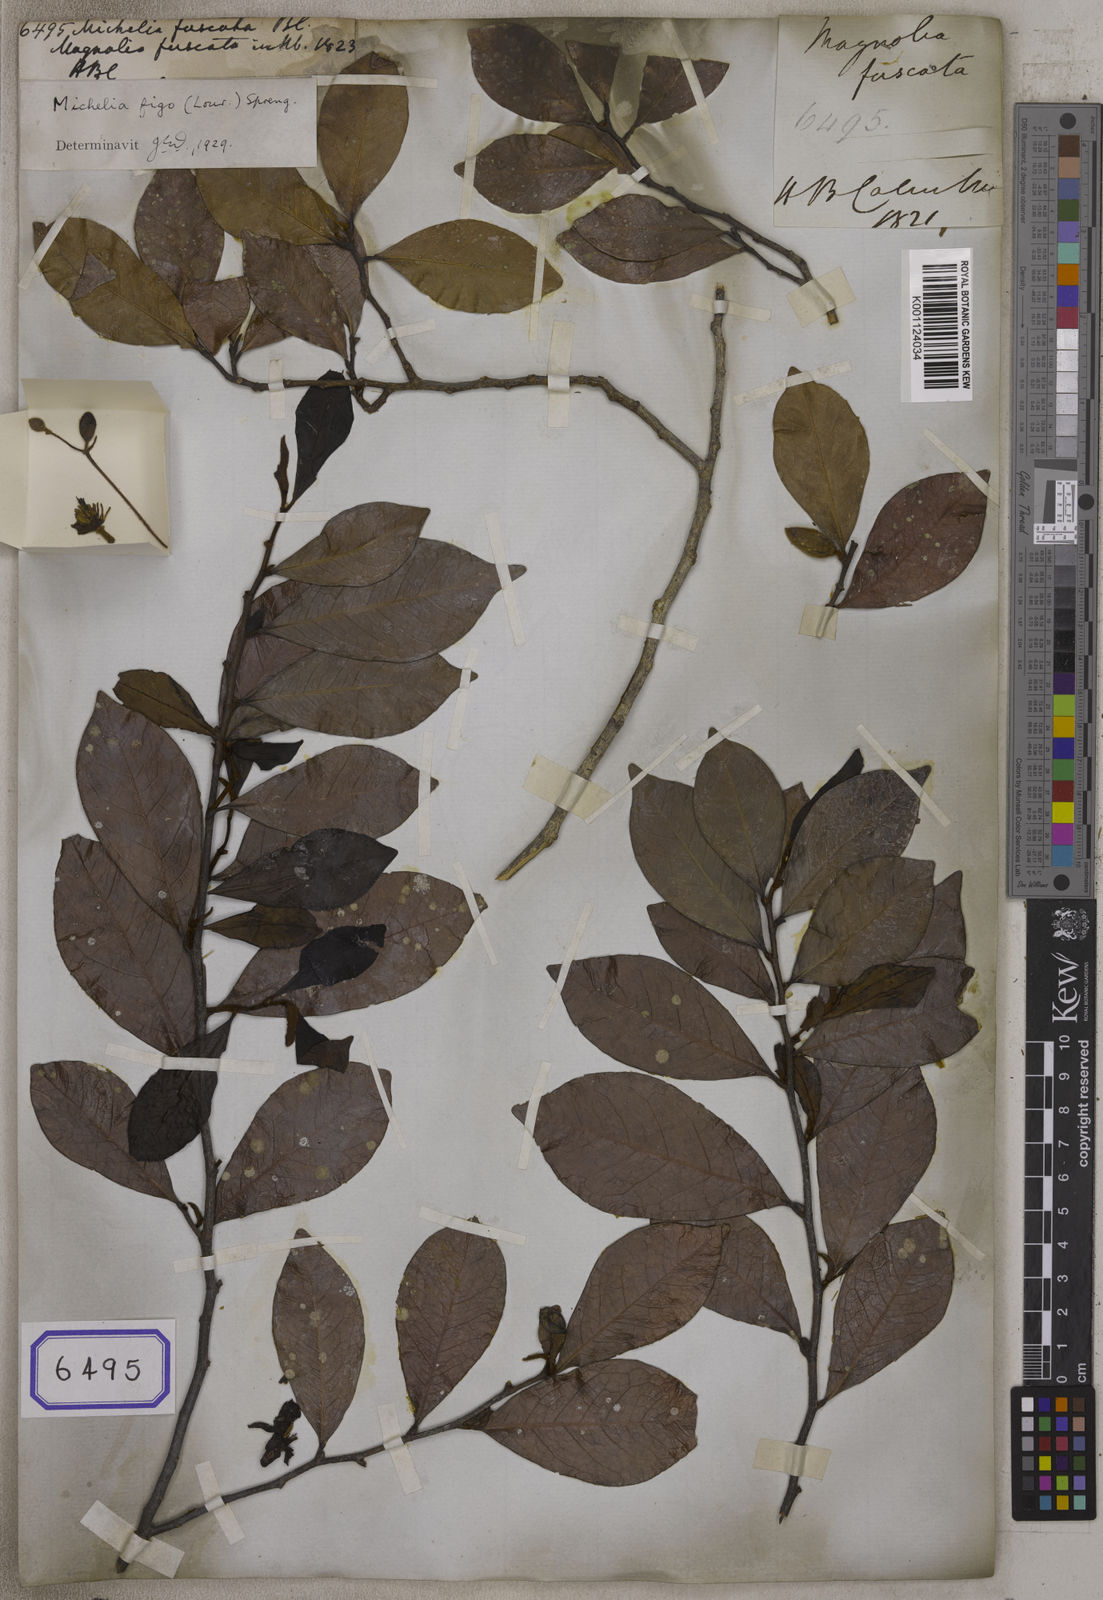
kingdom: Plantae
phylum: Tracheophyta
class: Magnoliopsida
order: Magnoliales
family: Magnoliaceae
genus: Magnolia
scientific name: Magnolia figo
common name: Banana shrub
